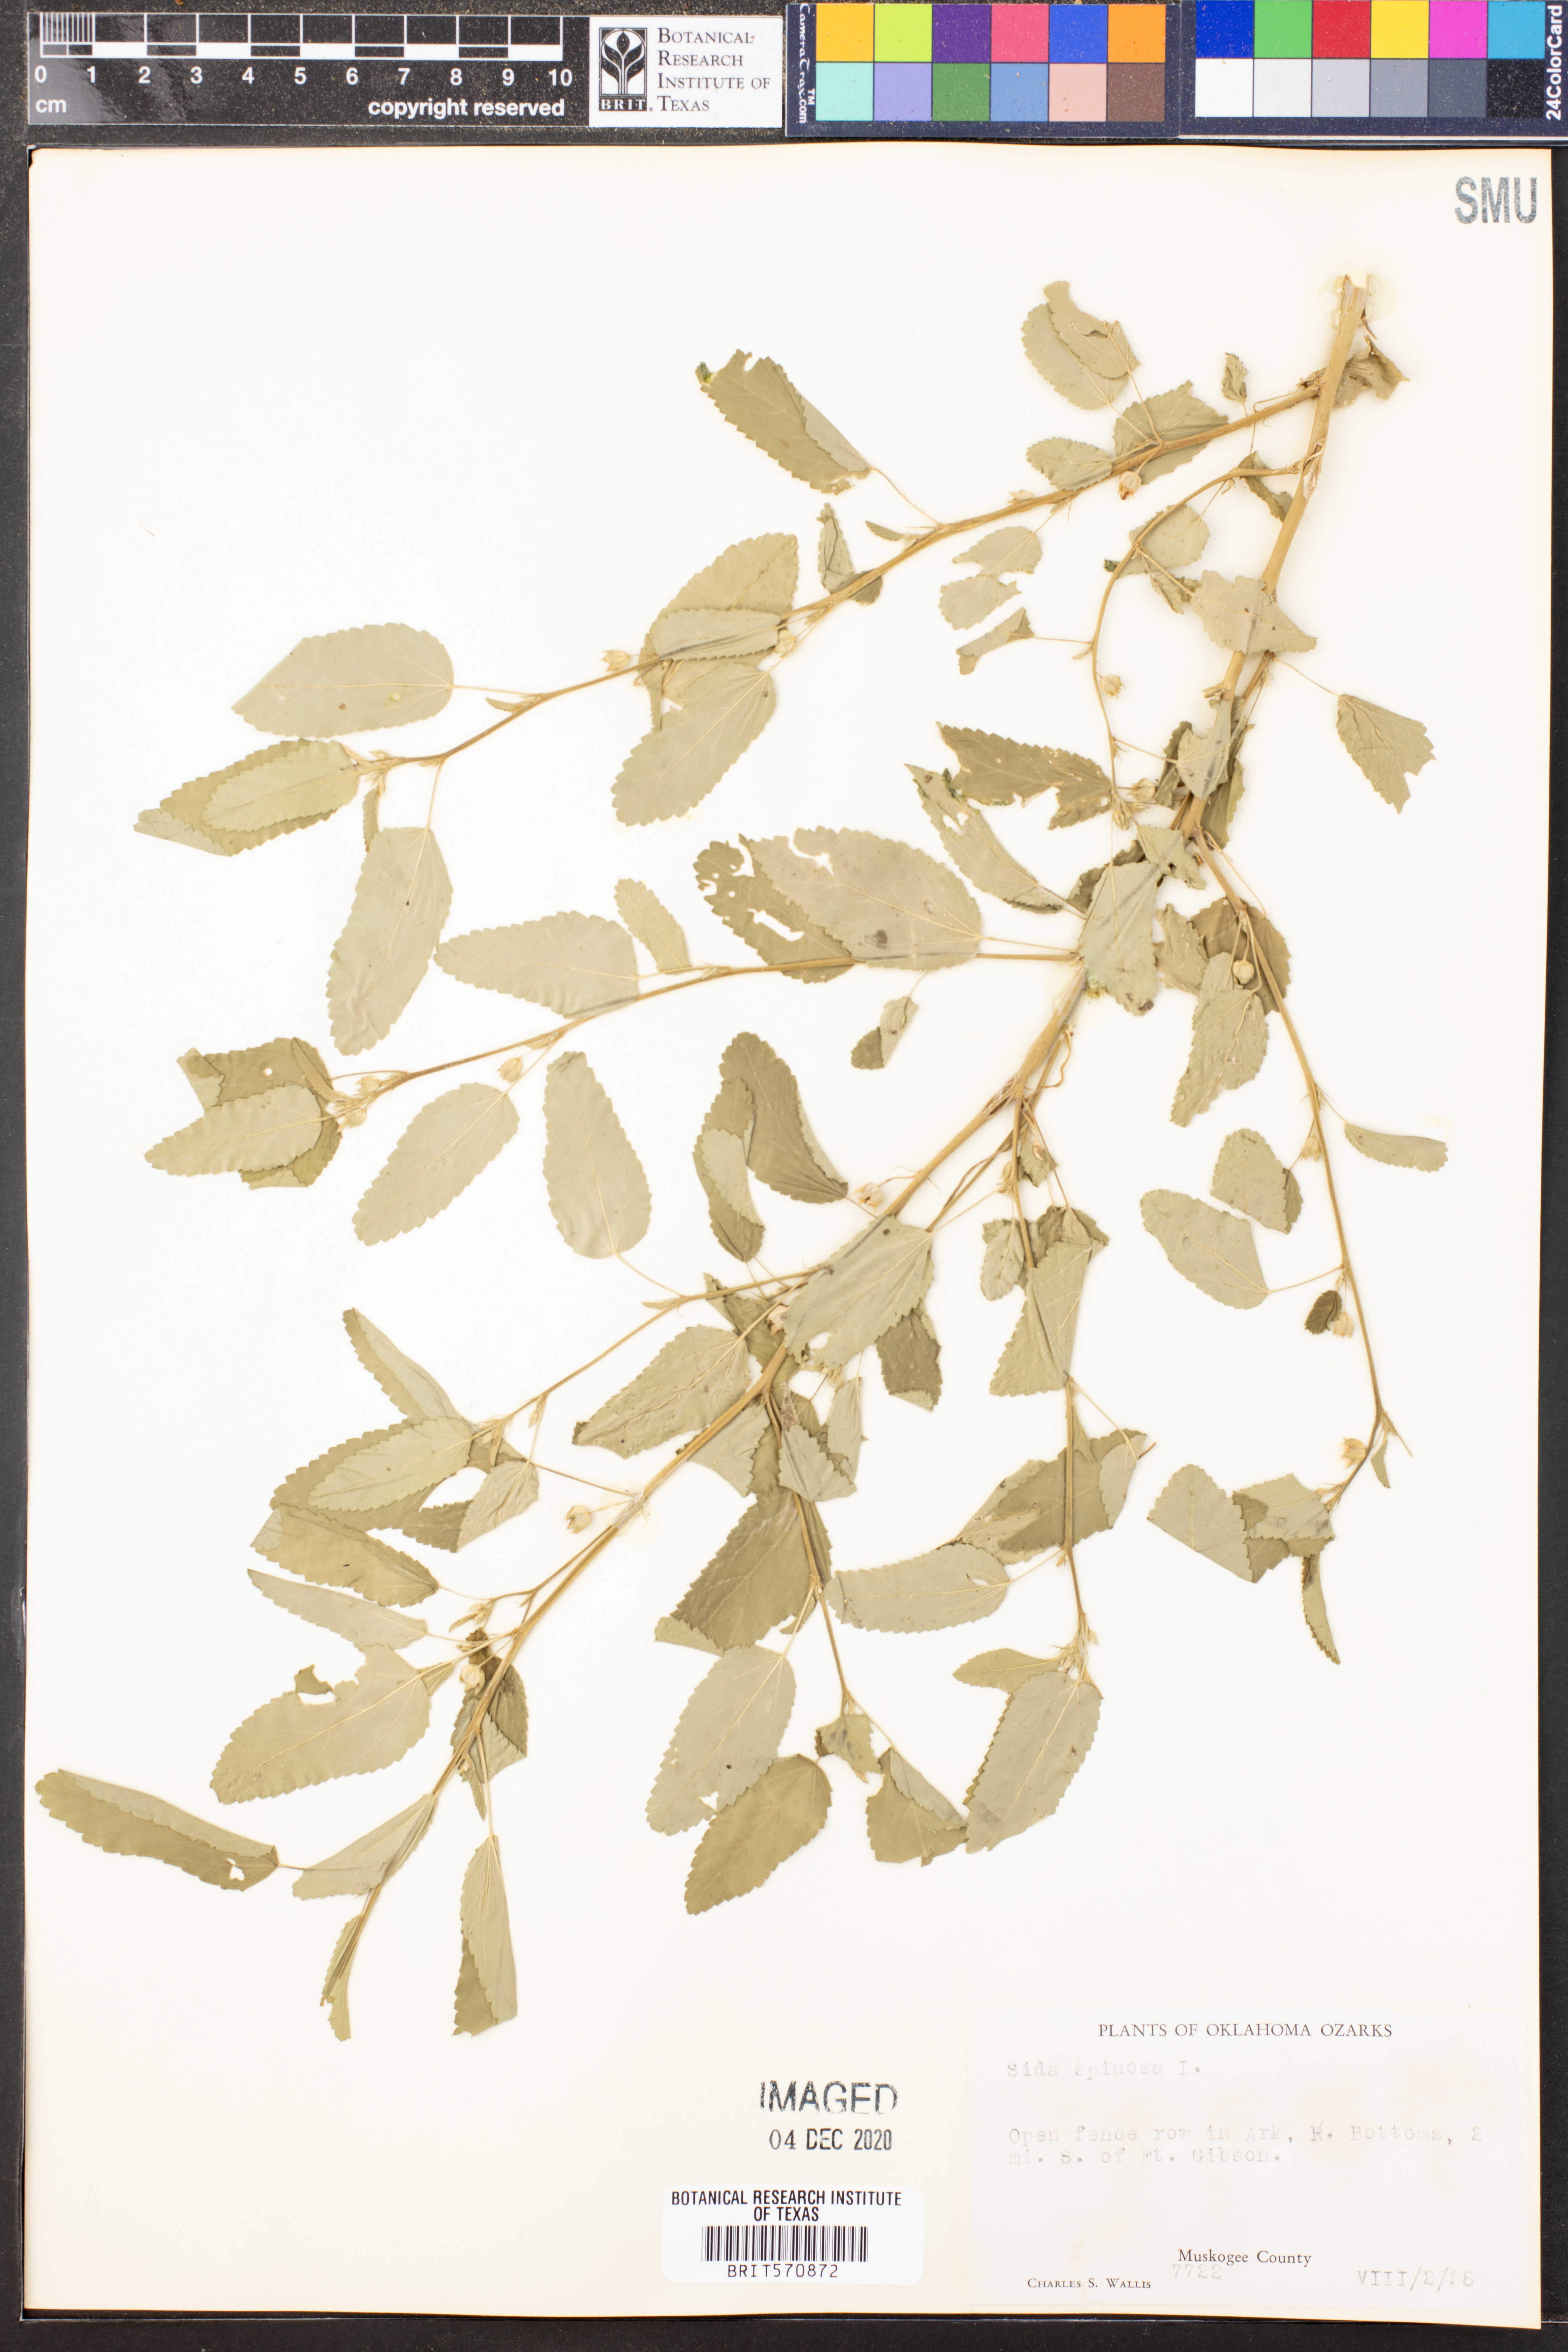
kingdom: Plantae
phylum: Tracheophyta
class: Magnoliopsida
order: Malvales
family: Malvaceae
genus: Sida
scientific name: Sida spinosa
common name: Prickly fanpetals
